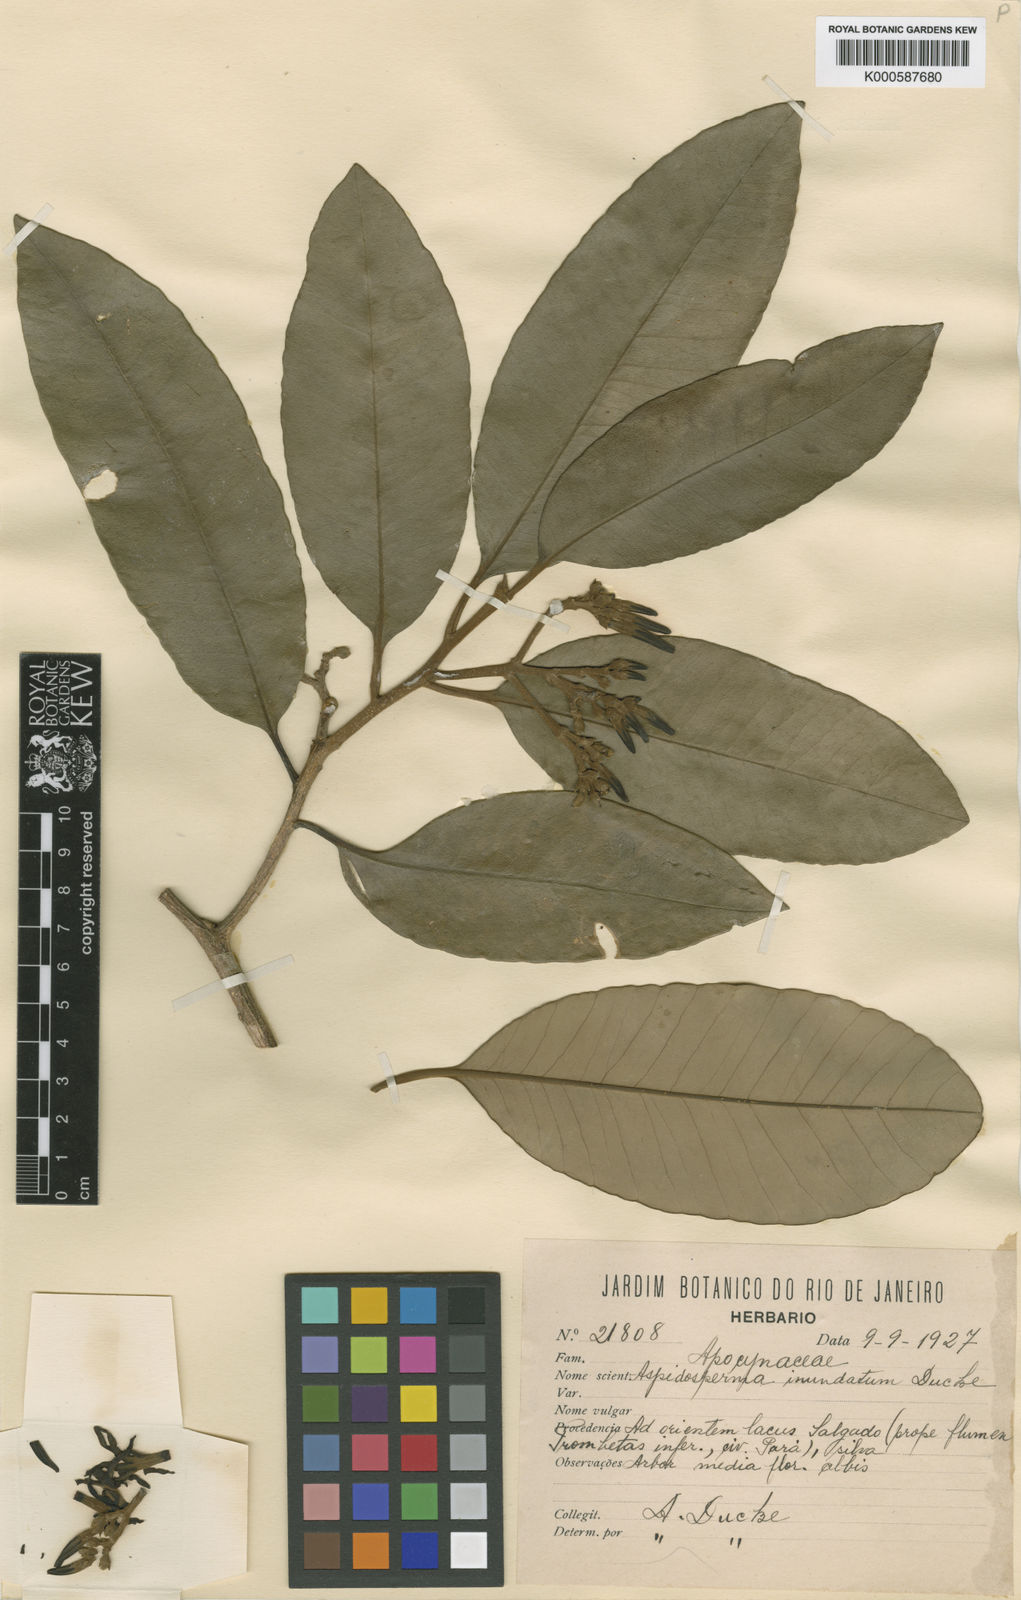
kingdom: Plantae
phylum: Tracheophyta
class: Magnoliopsida
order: Gentianales
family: Apocynaceae
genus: Aspidosperma
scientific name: Aspidosperma inundatum
